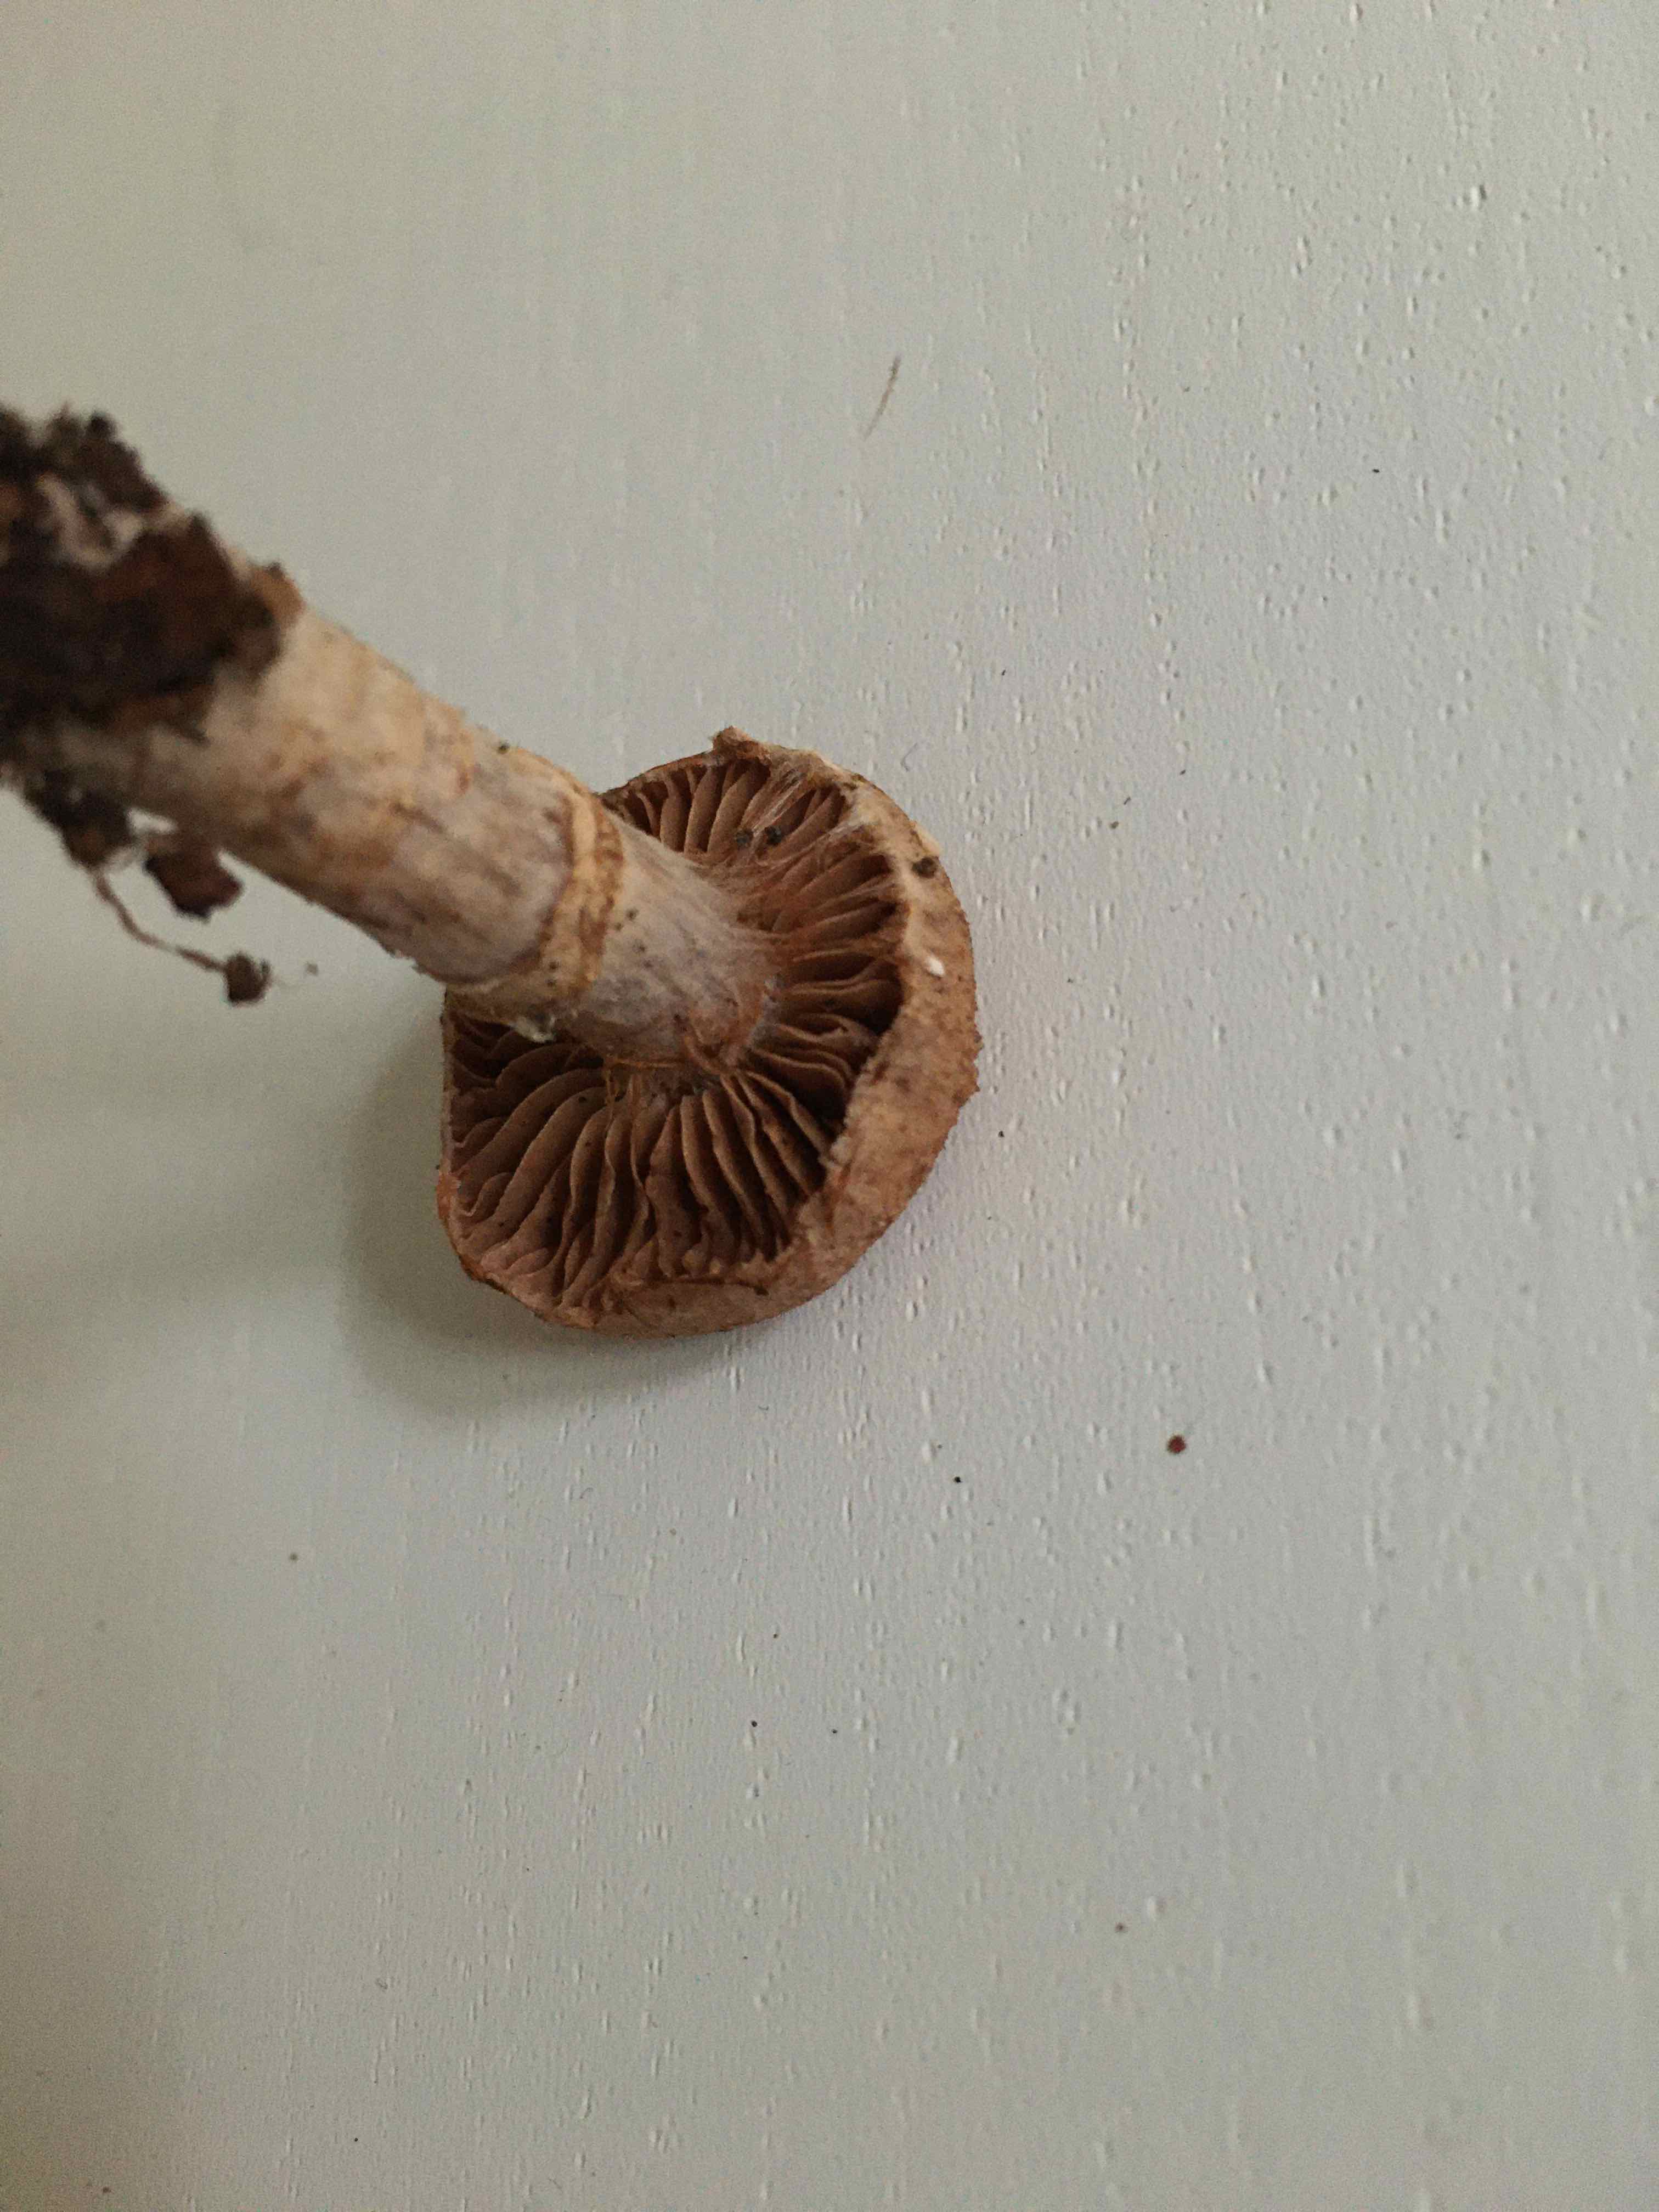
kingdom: Fungi
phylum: Basidiomycota
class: Agaricomycetes
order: Agaricales
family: Cortinariaceae
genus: Cortinarius
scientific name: Cortinarius torvus
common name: champignonagtig slørhat
